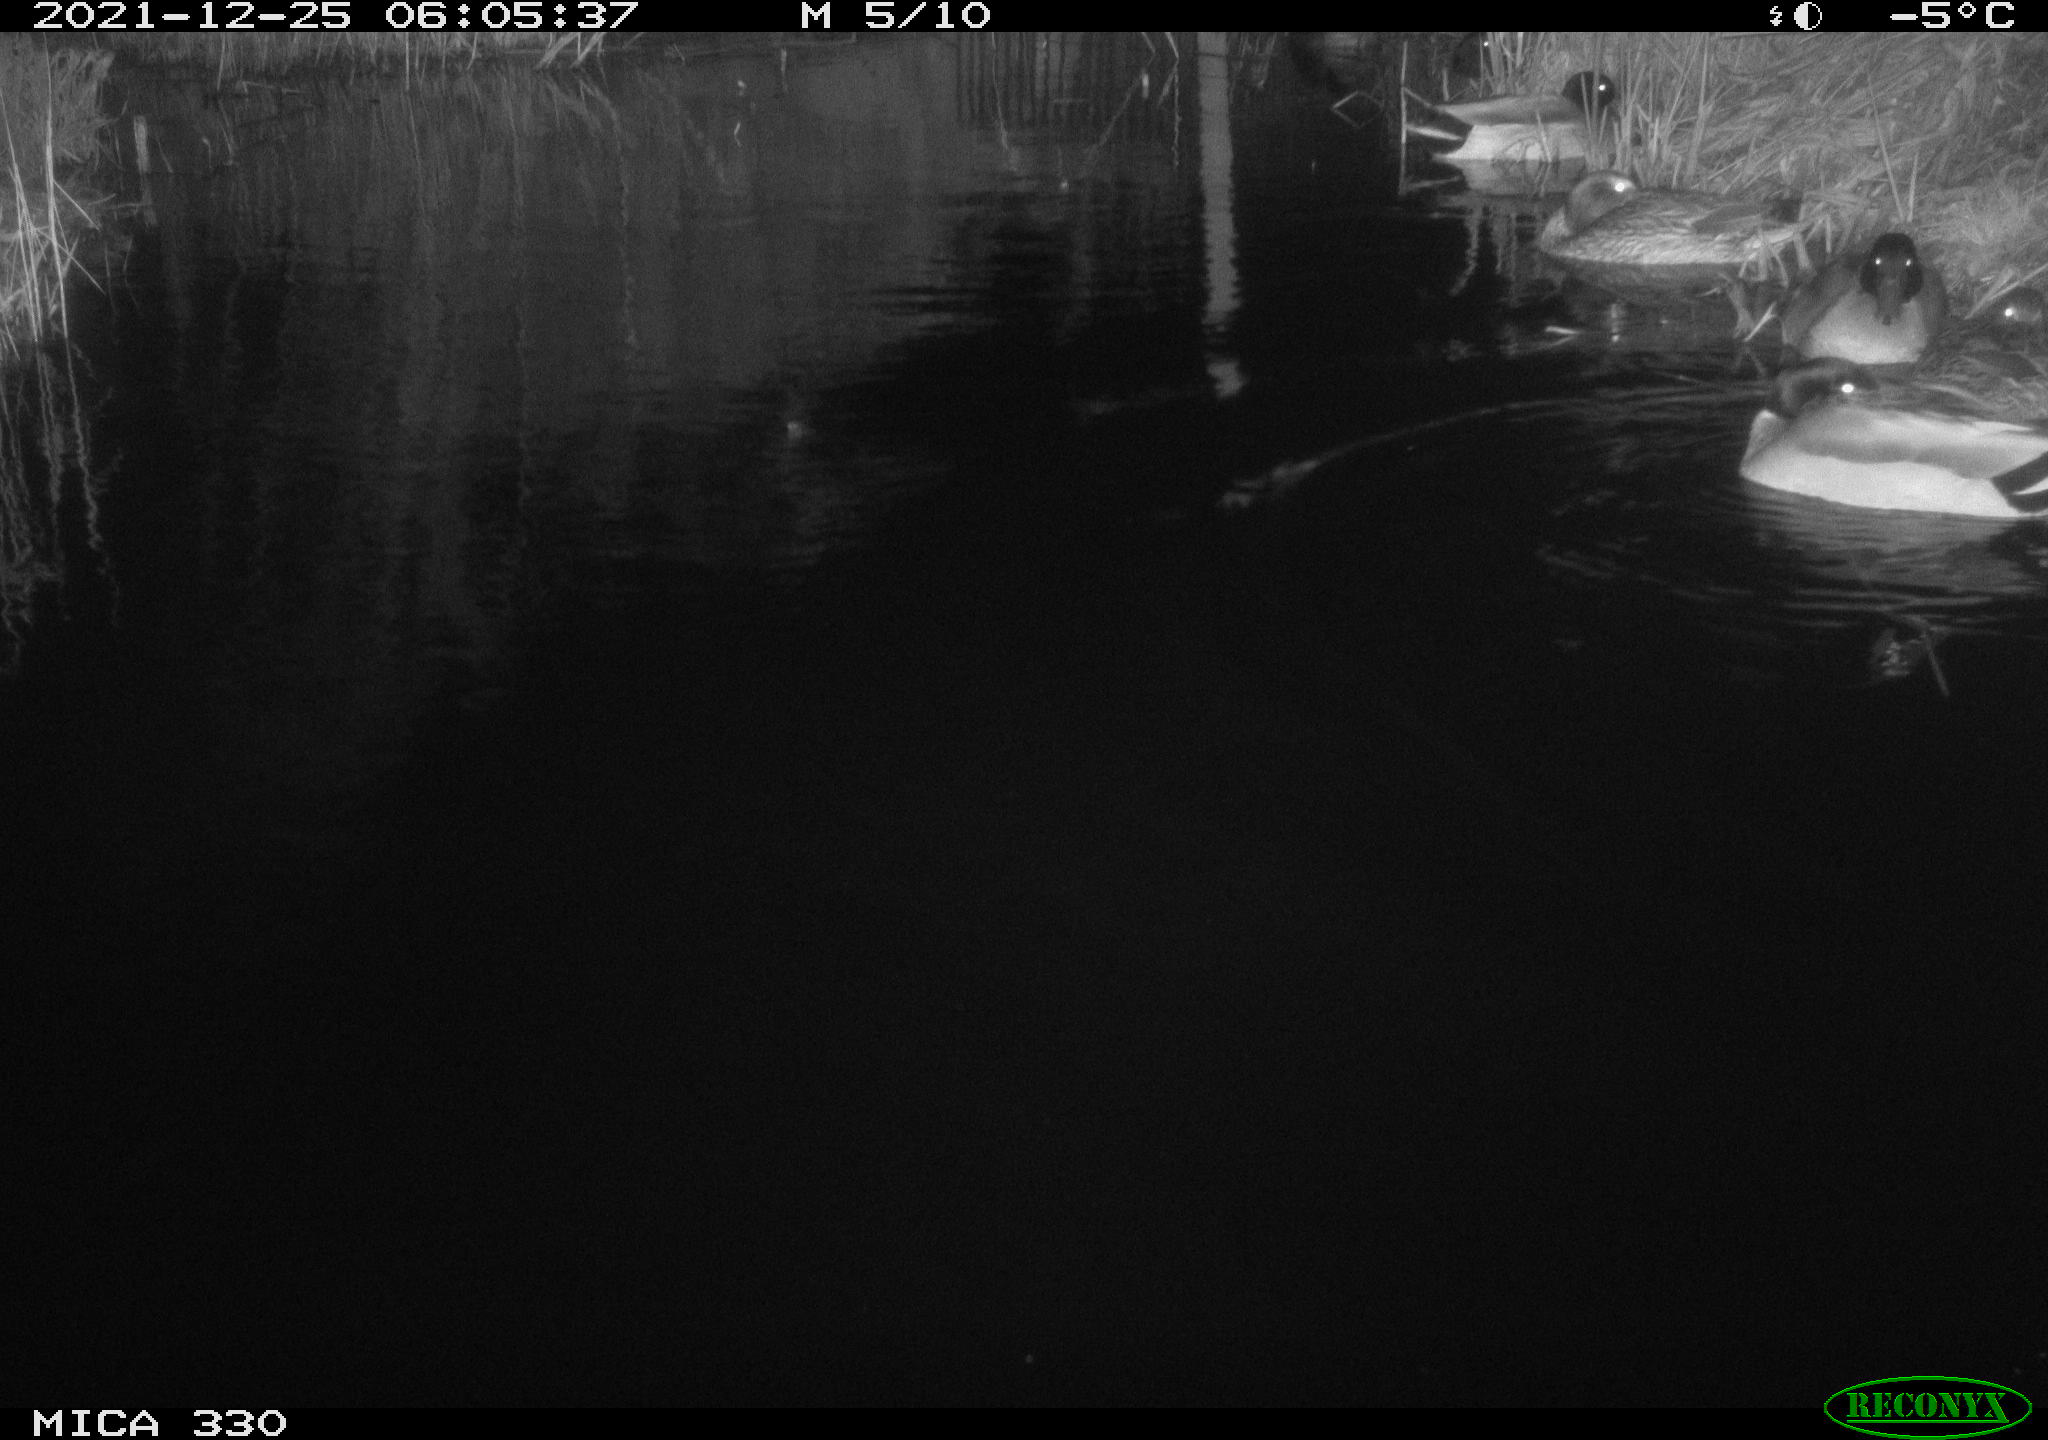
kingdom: Animalia
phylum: Chordata
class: Aves
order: Anseriformes
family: Anatidae
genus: Anas
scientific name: Anas platyrhynchos
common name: Mallard
